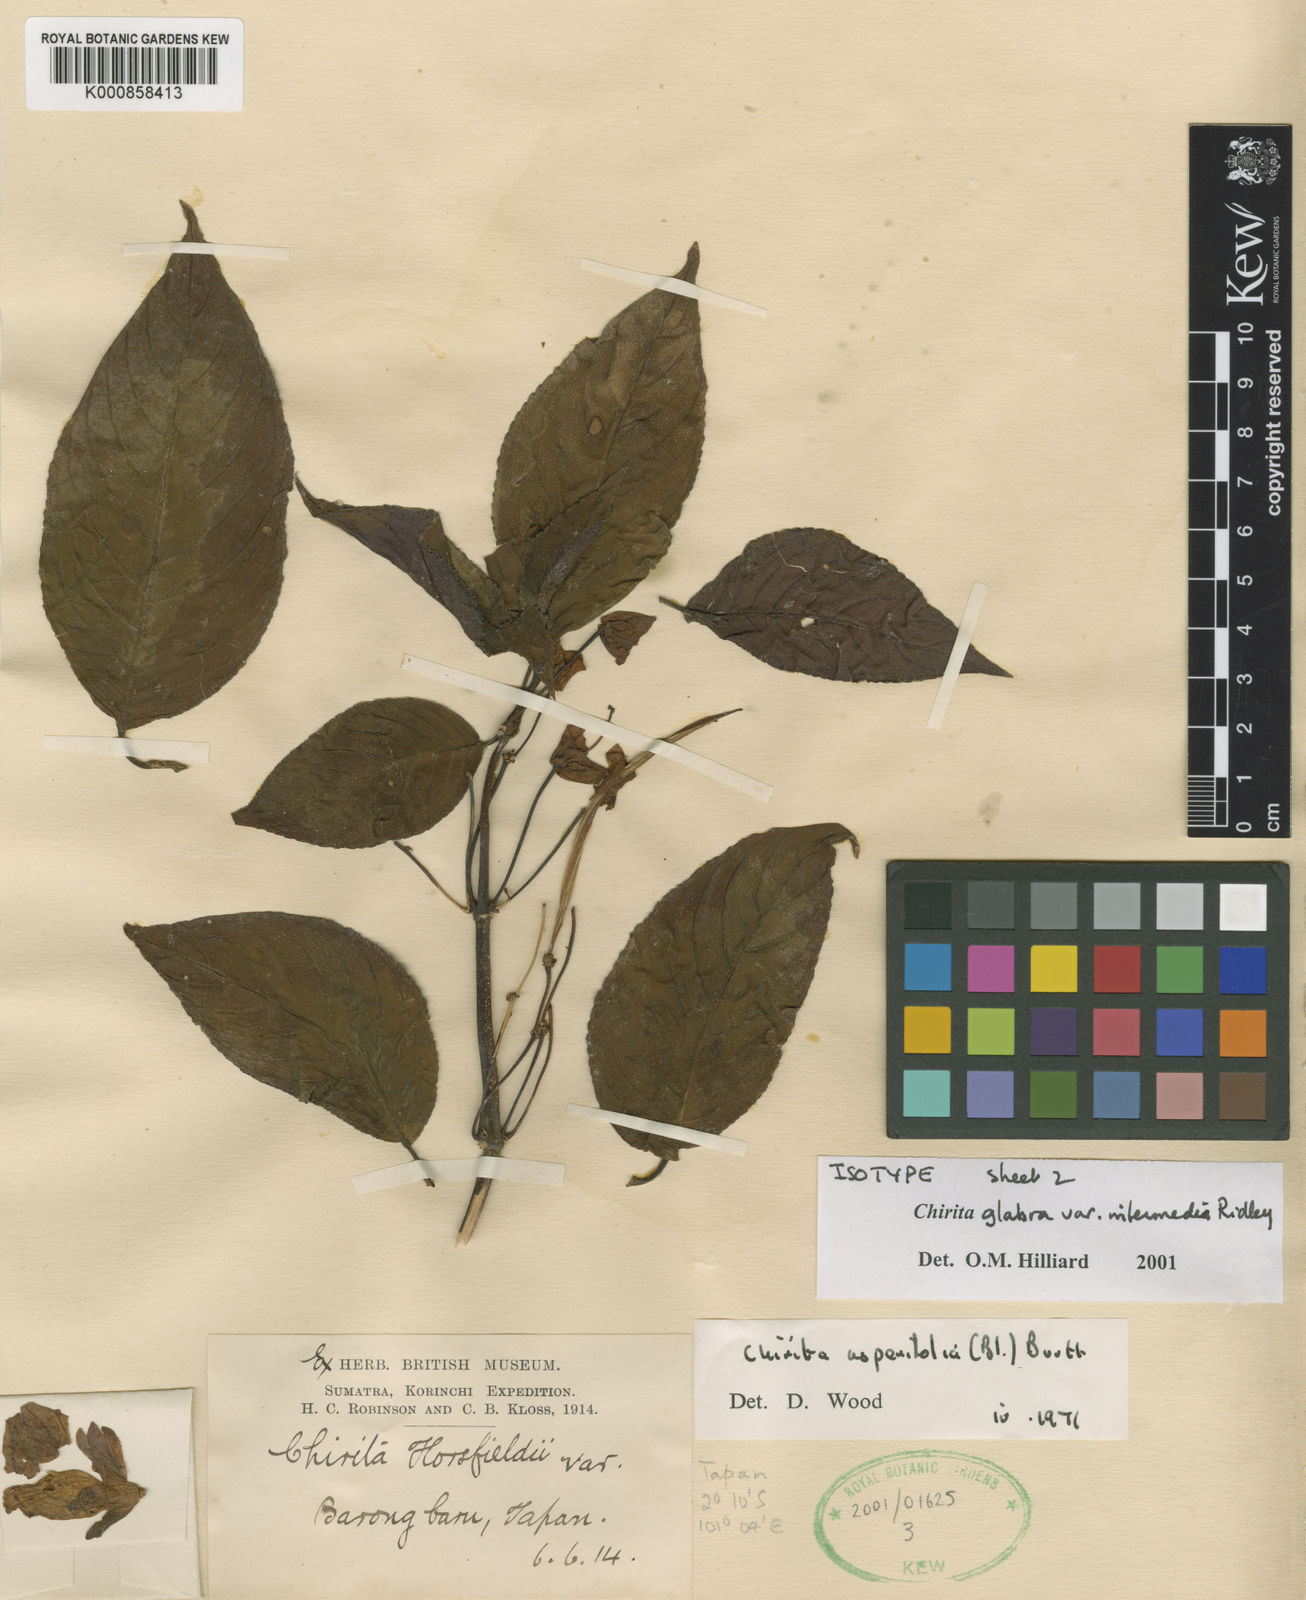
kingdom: Plantae
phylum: Tracheophyta
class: Magnoliopsida
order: Lamiales
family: Gesneriaceae
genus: Liebigia
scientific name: Liebigia glabra
